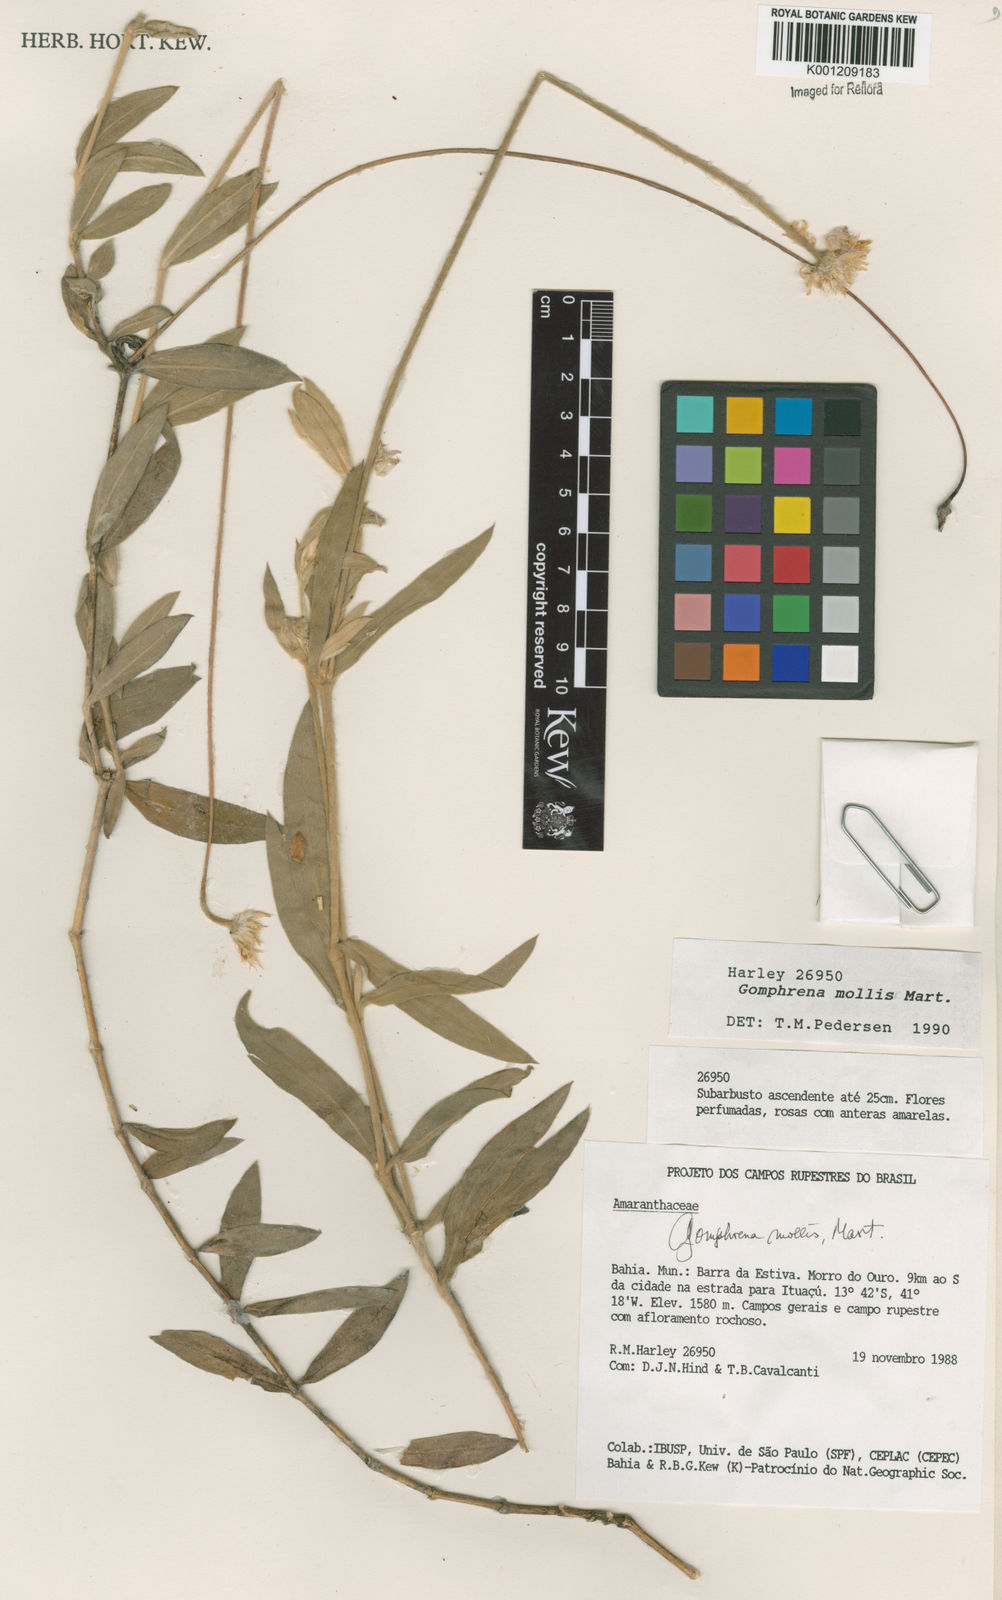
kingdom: Plantae
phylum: Tracheophyta
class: Magnoliopsida
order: Caryophyllales
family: Amaranthaceae
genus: Gomphrena
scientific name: Gomphrena mollis
